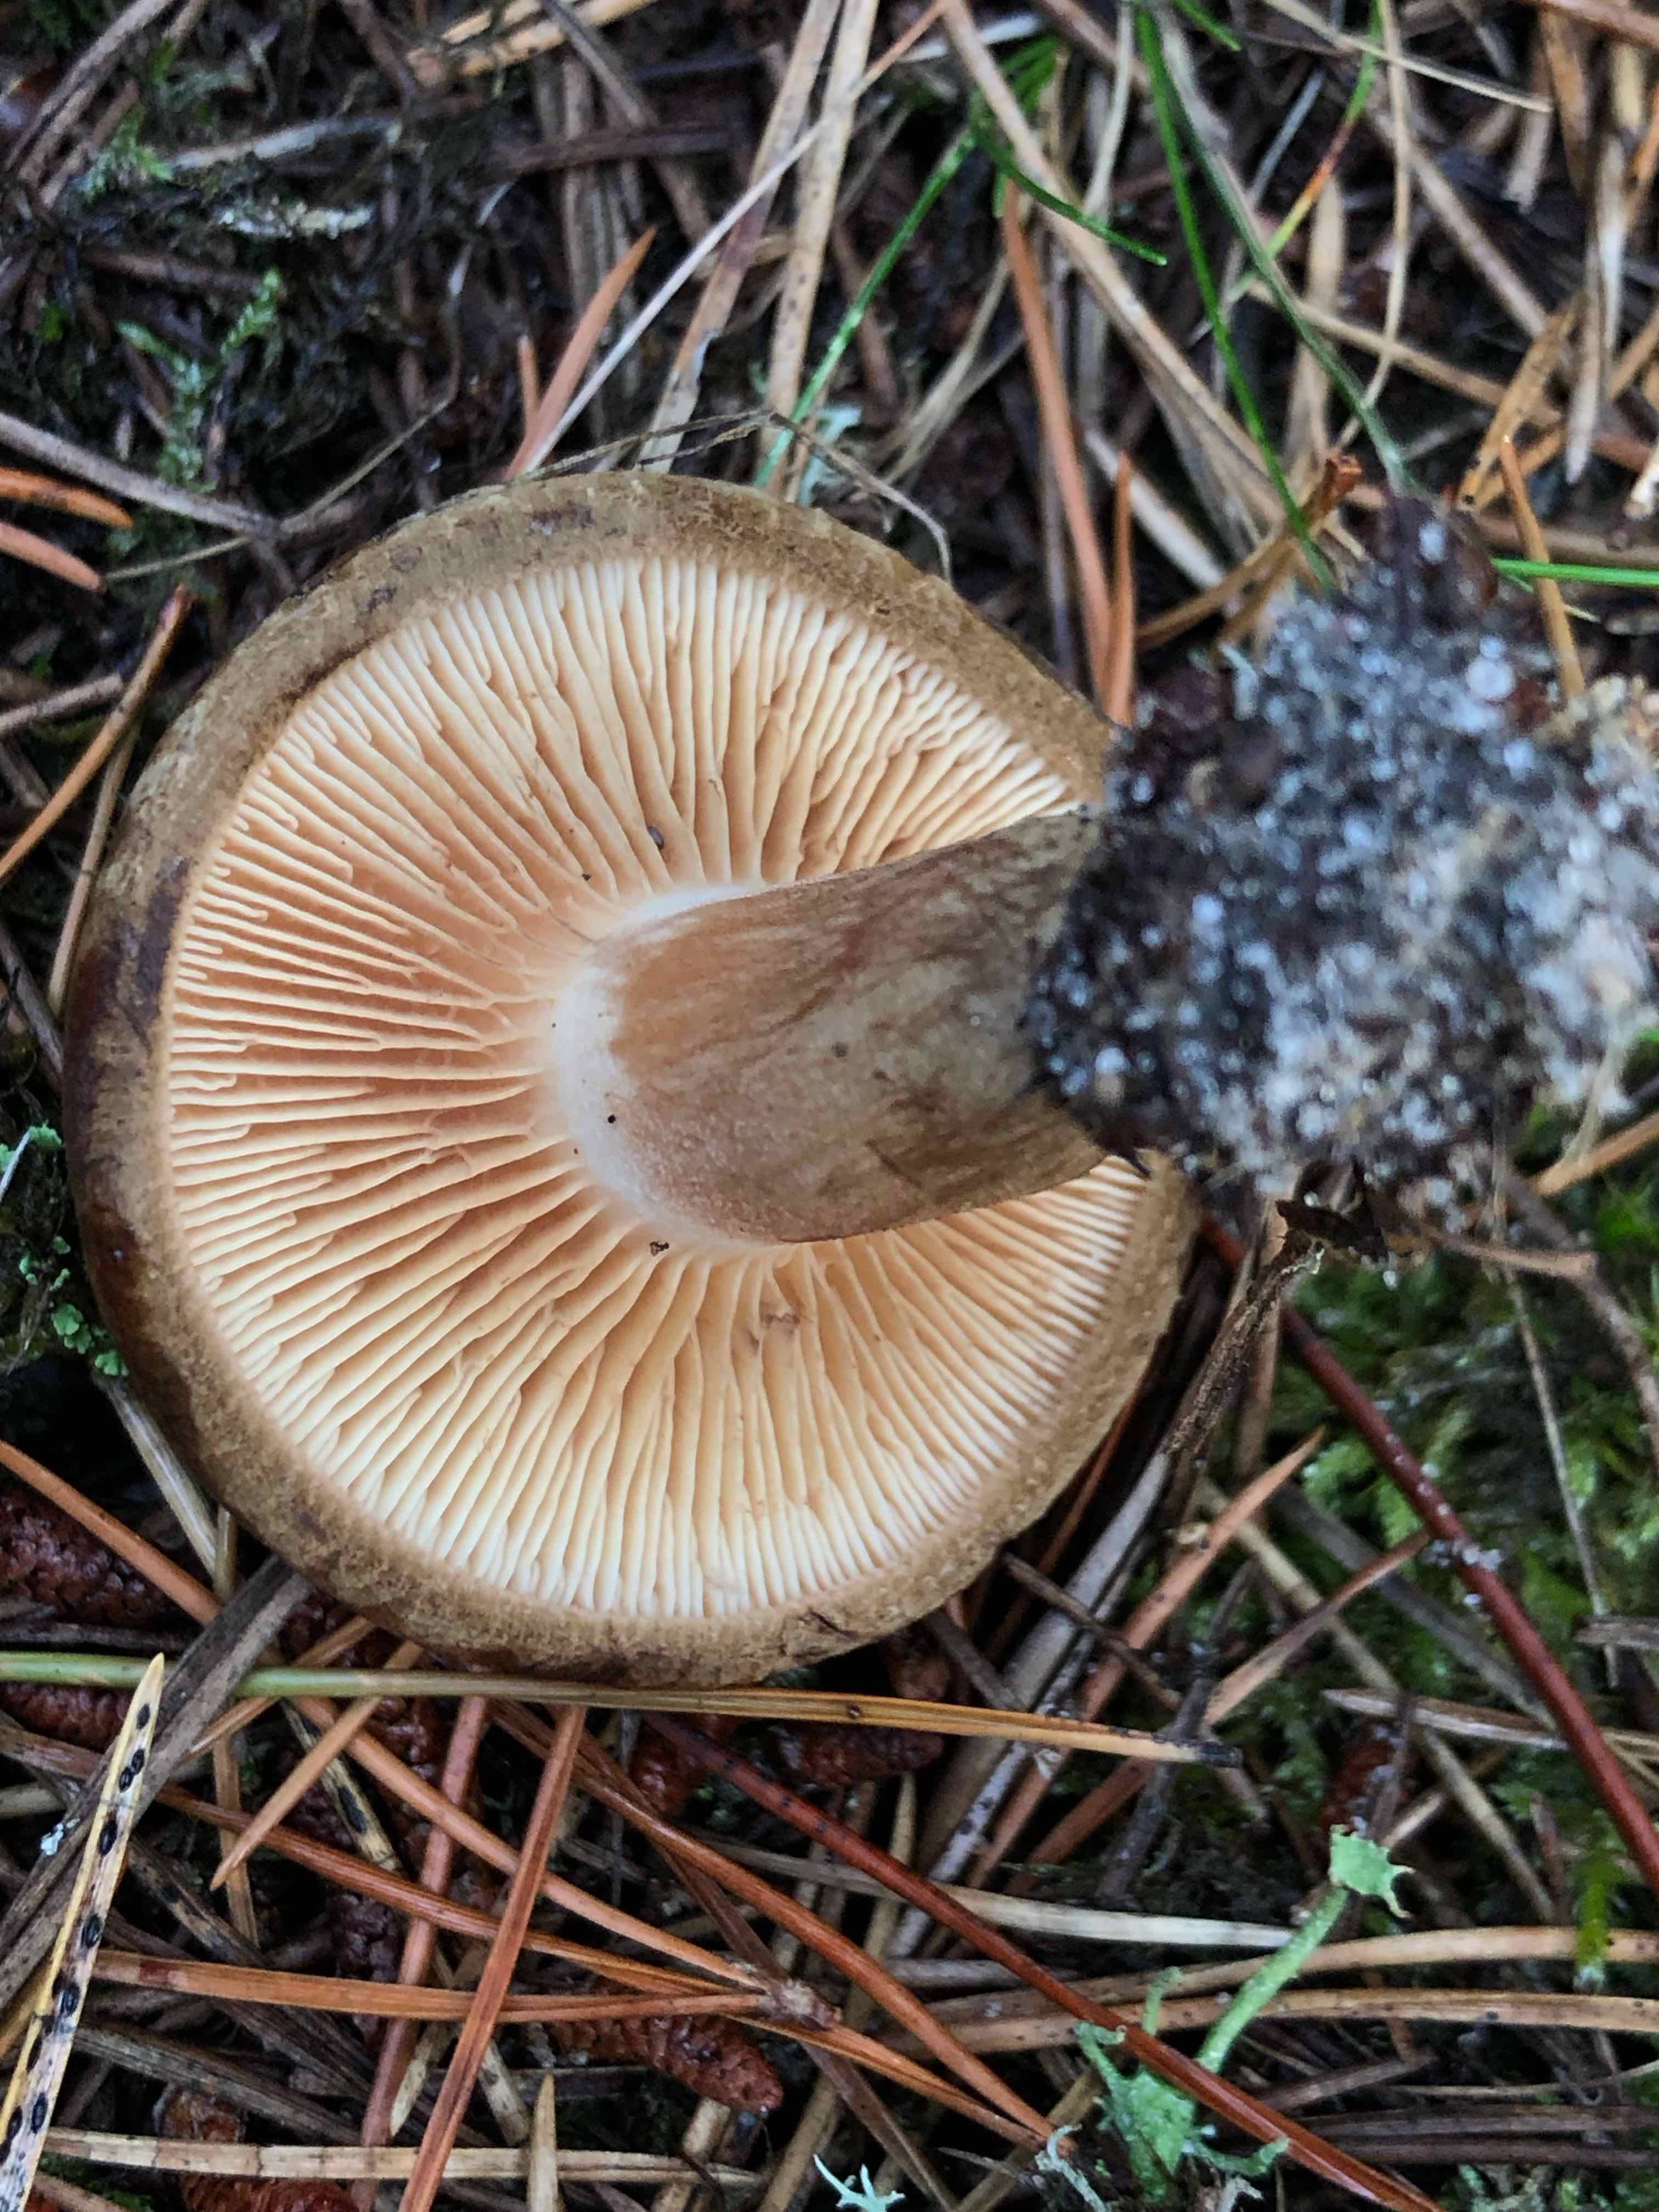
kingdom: Fungi
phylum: Basidiomycota
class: Agaricomycetes
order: Boletales
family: Paxillaceae
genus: Paxillus
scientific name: Paxillus involutus
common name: almindelig netbladhat
